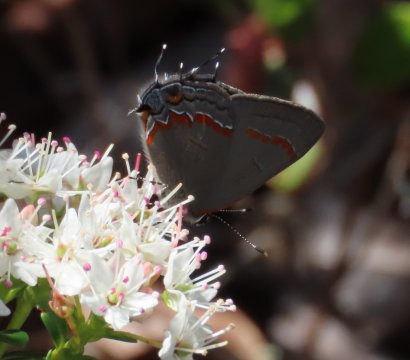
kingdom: Animalia
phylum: Arthropoda
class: Insecta
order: Lepidoptera
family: Lycaenidae
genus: Calycopis
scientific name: Calycopis cecrops
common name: Red-banded Hairstreak
